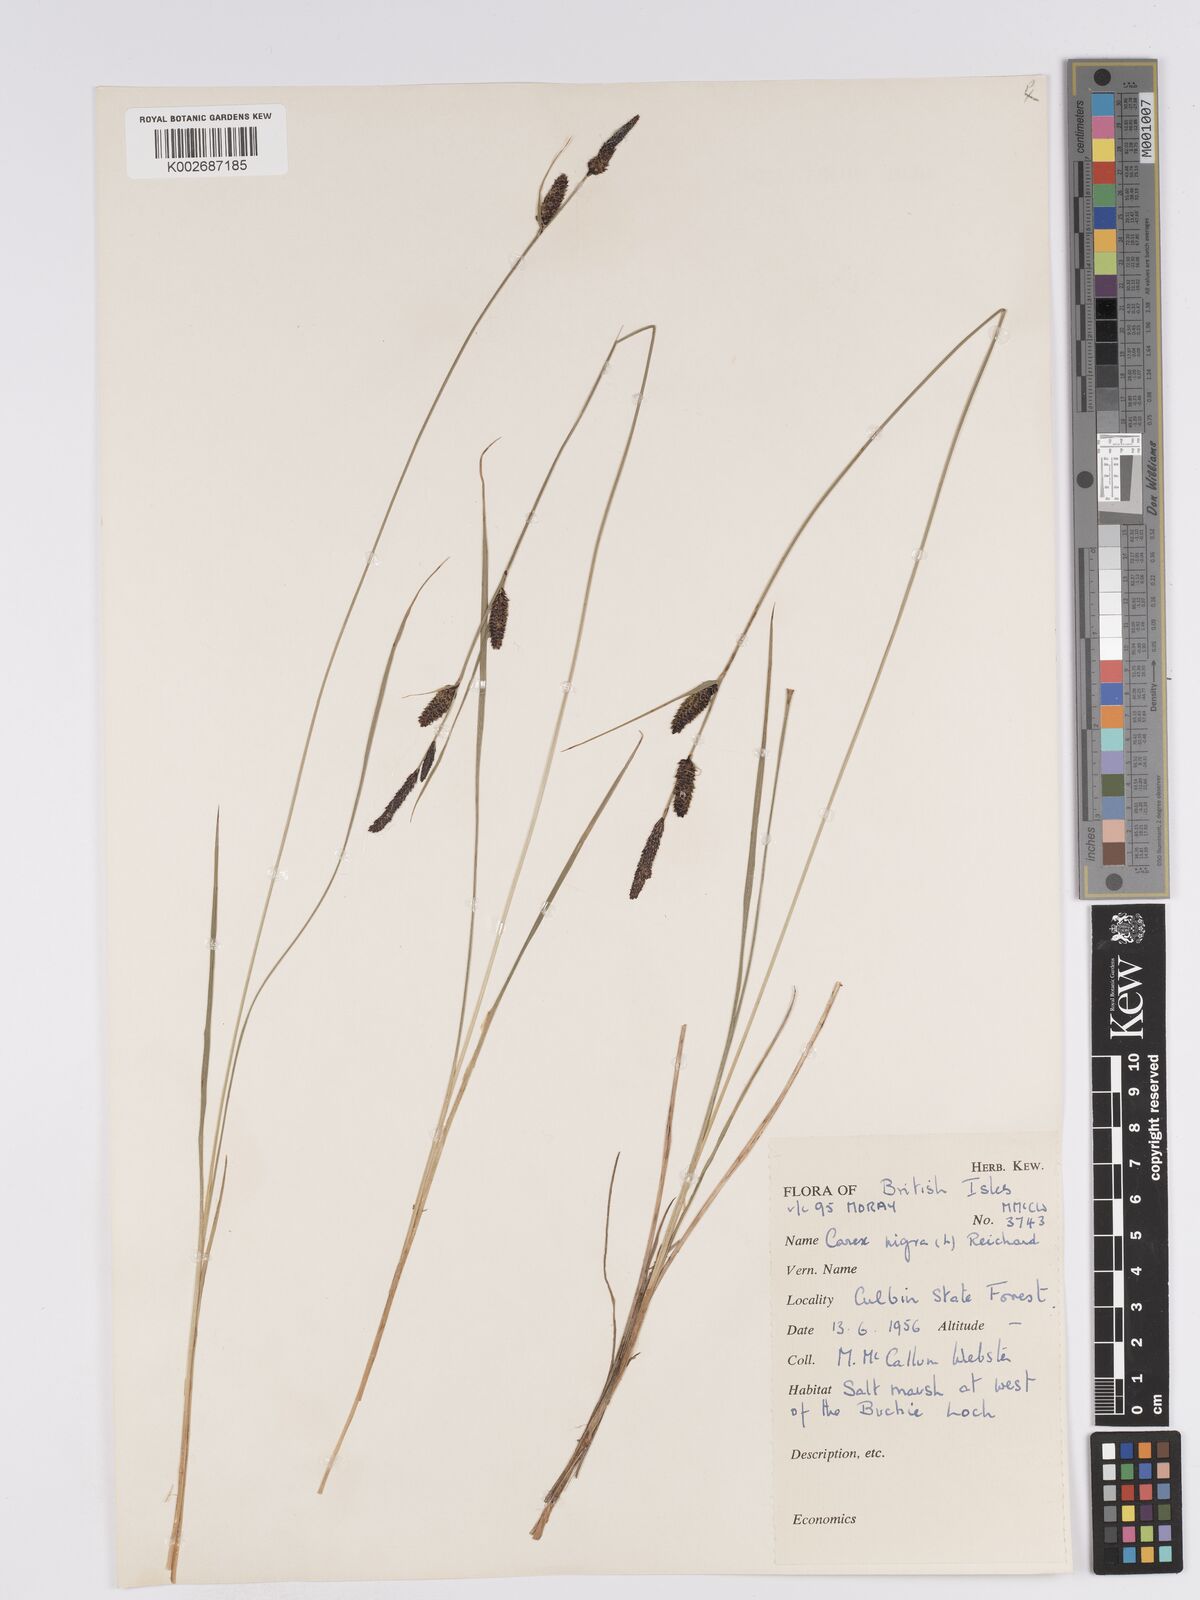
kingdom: Plantae
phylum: Tracheophyta
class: Liliopsida
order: Poales
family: Cyperaceae
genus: Carex
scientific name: Carex nigra
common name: Common sedge
